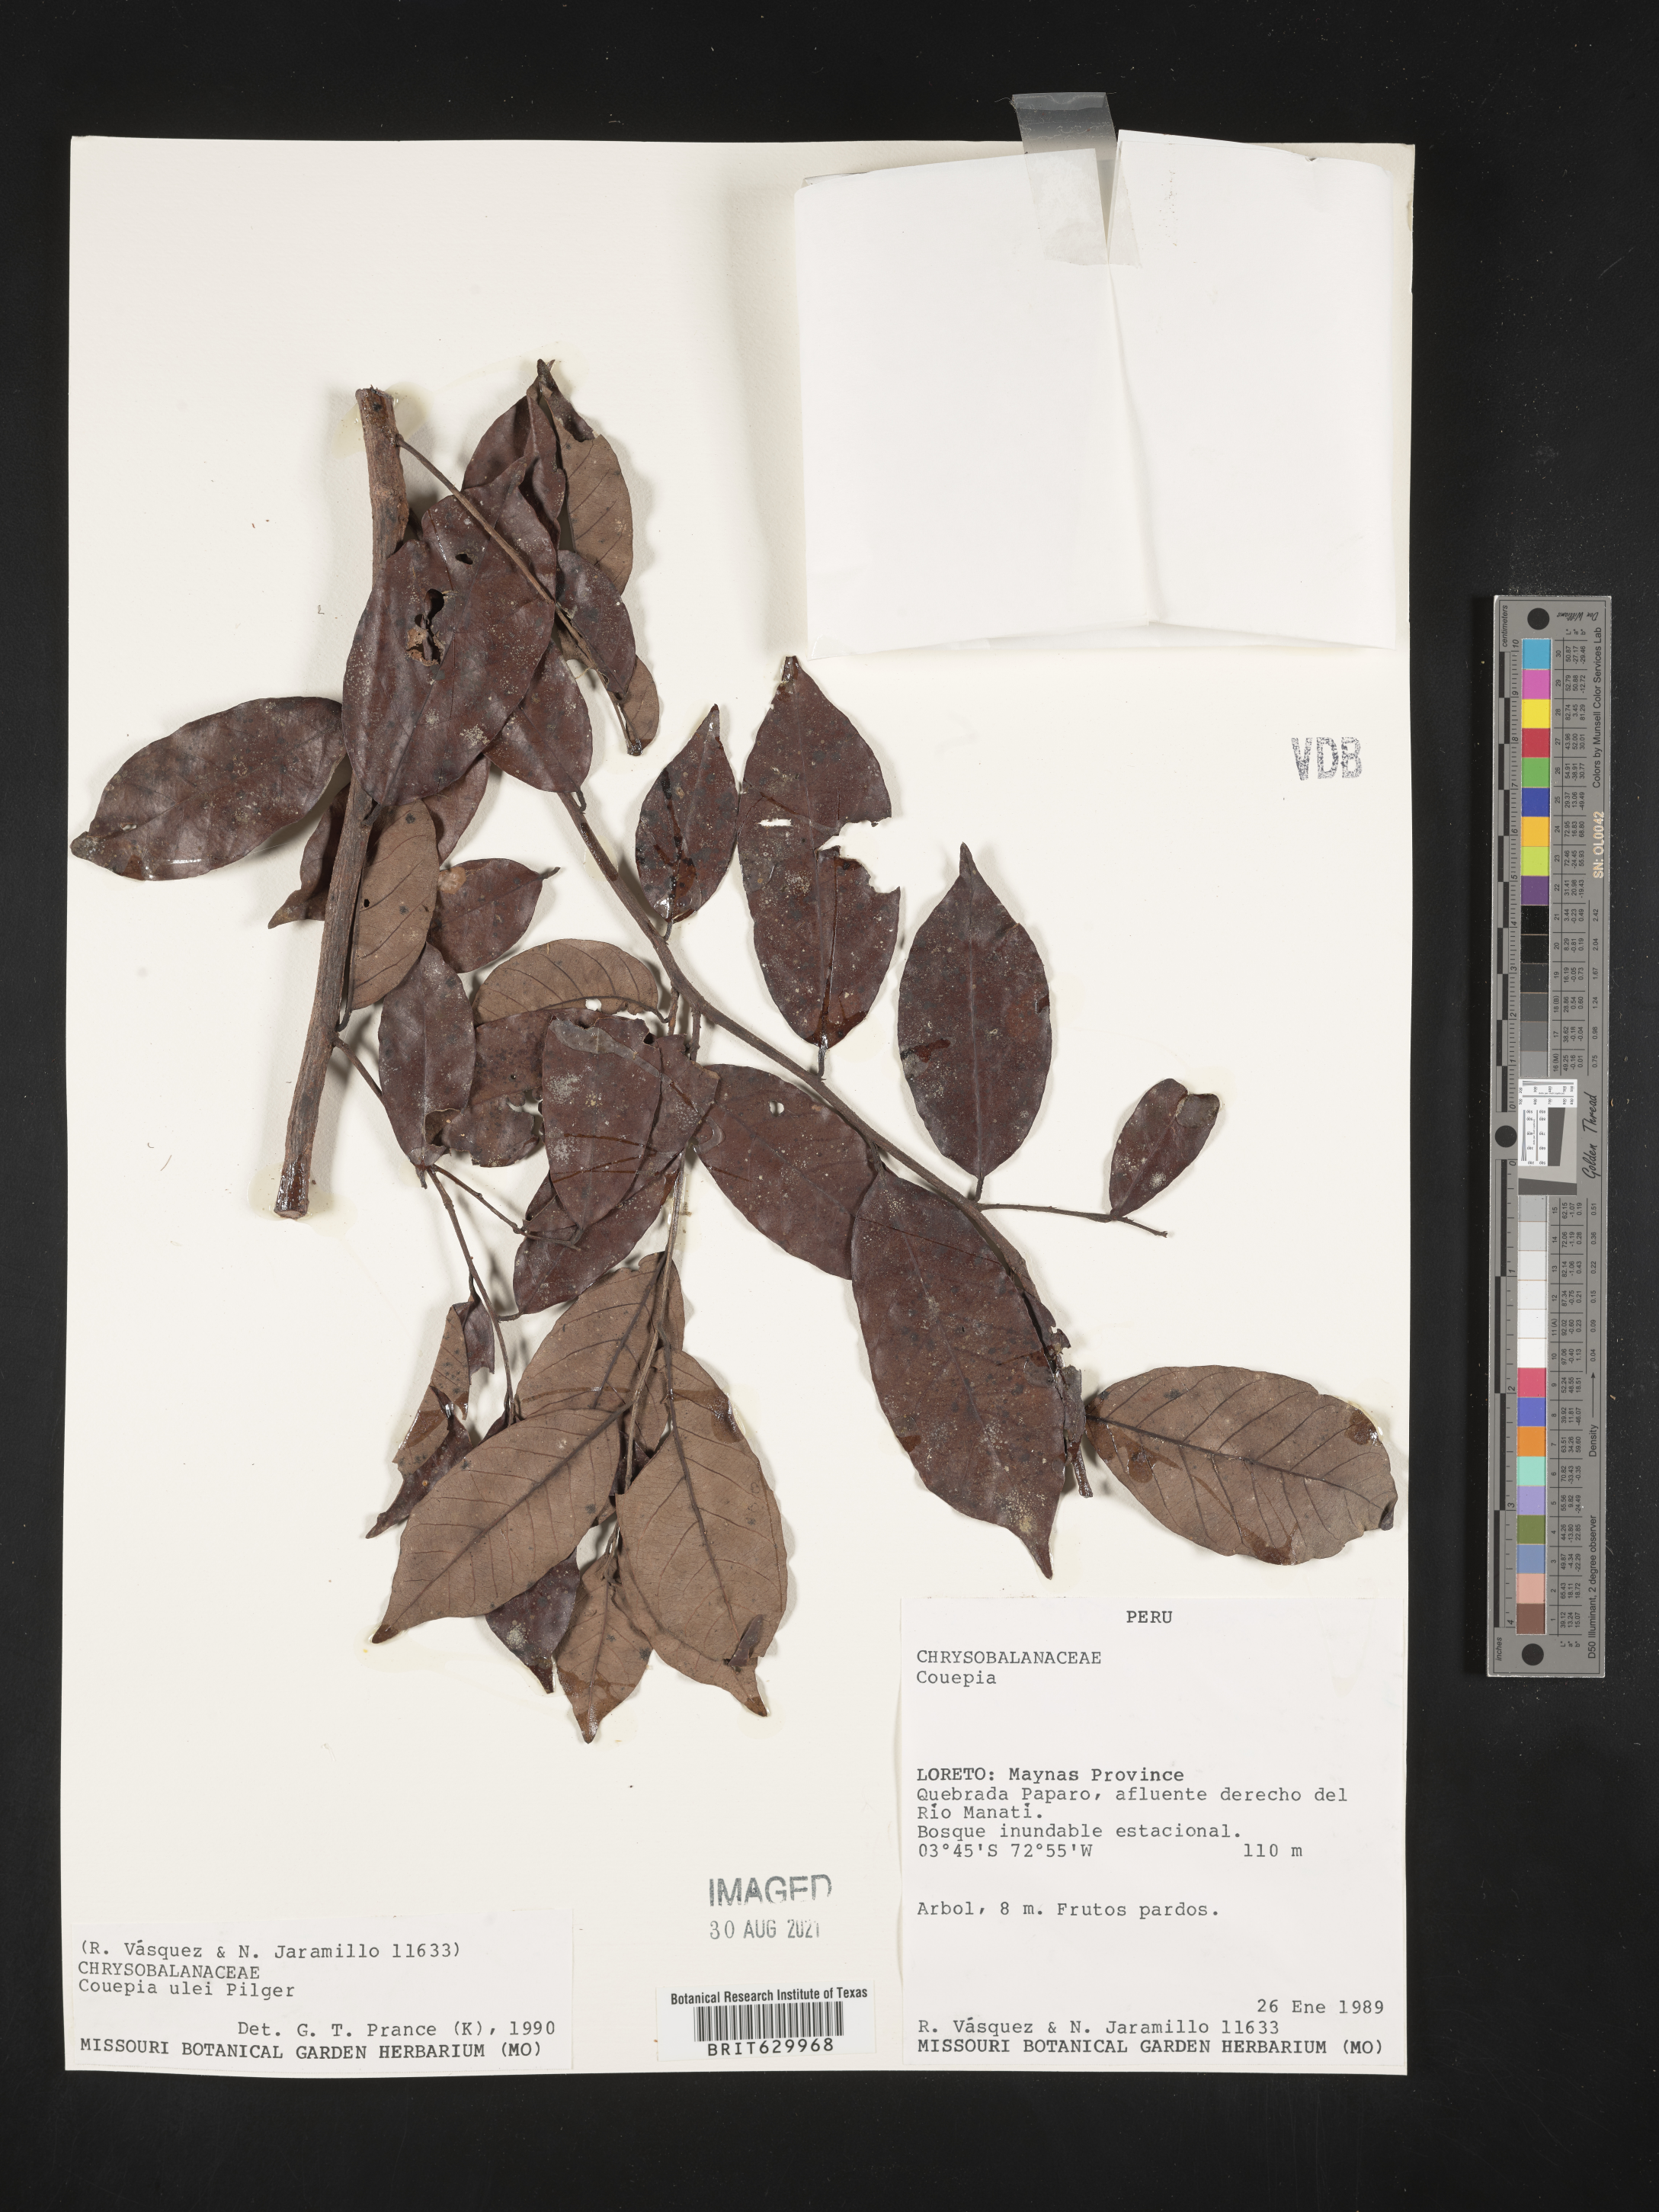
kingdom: Plantae
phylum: Tracheophyta
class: Magnoliopsida
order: Malpighiales
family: Chrysobalanaceae
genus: Couepia
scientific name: Couepia ulei
